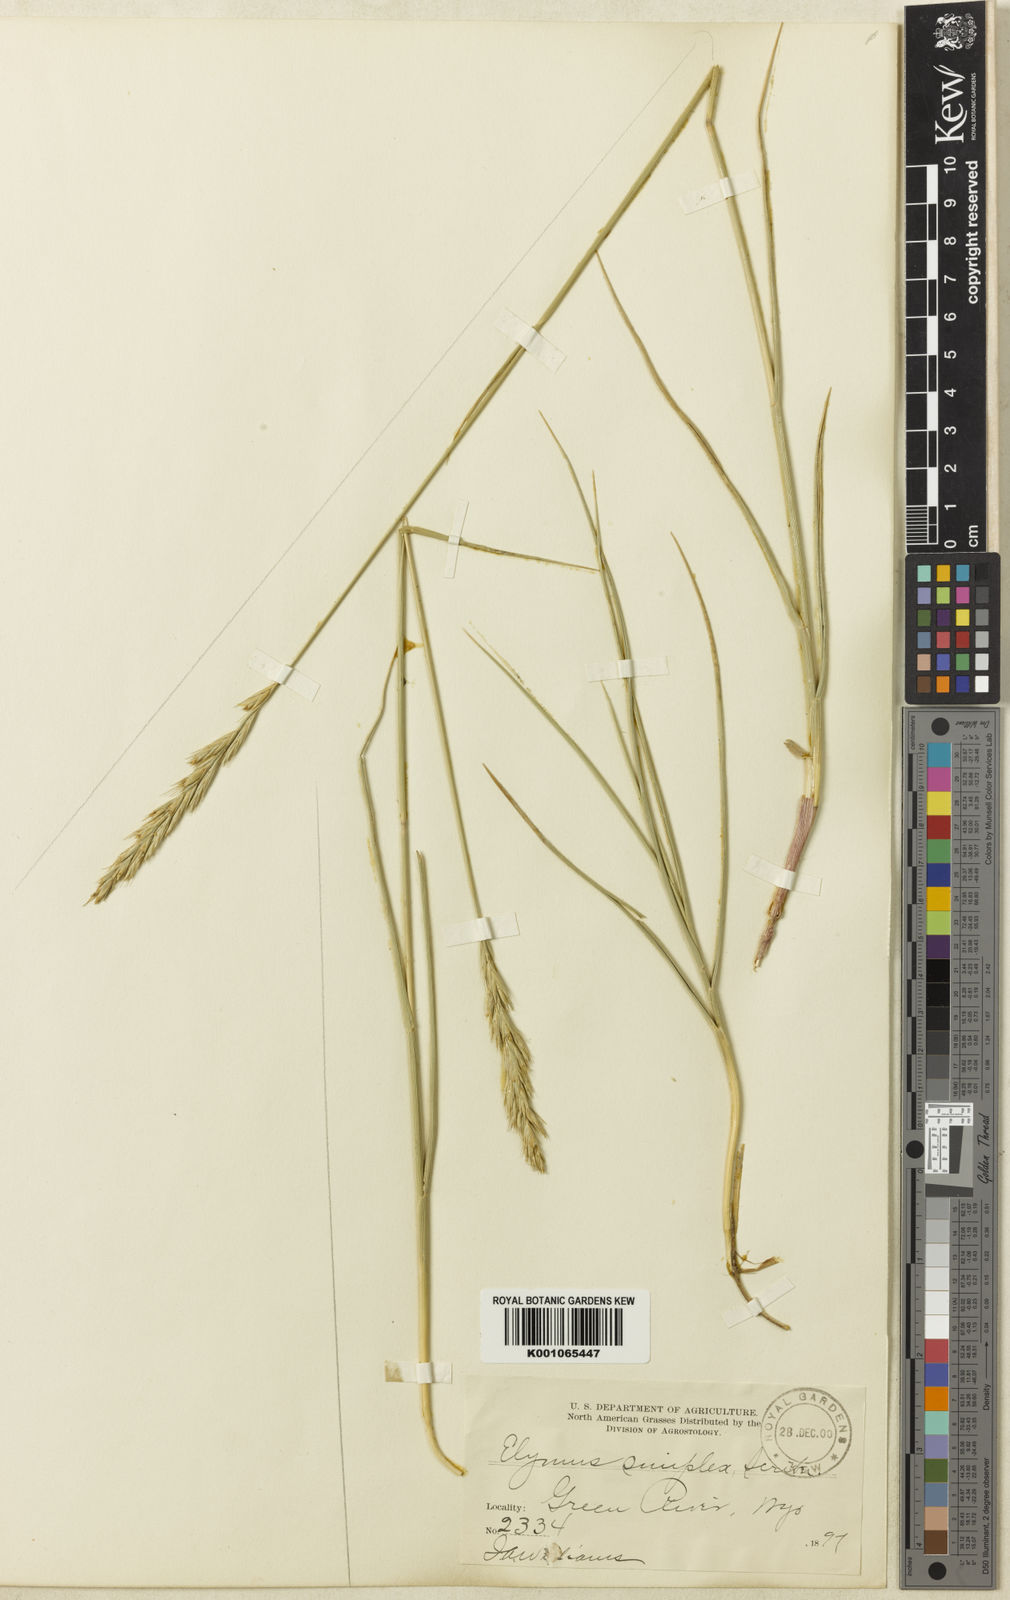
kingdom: Plantae
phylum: Tracheophyta
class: Liliopsida
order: Poales
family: Poaceae
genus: Leymus
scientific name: Leymus triticoides
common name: Beardless wild rye
